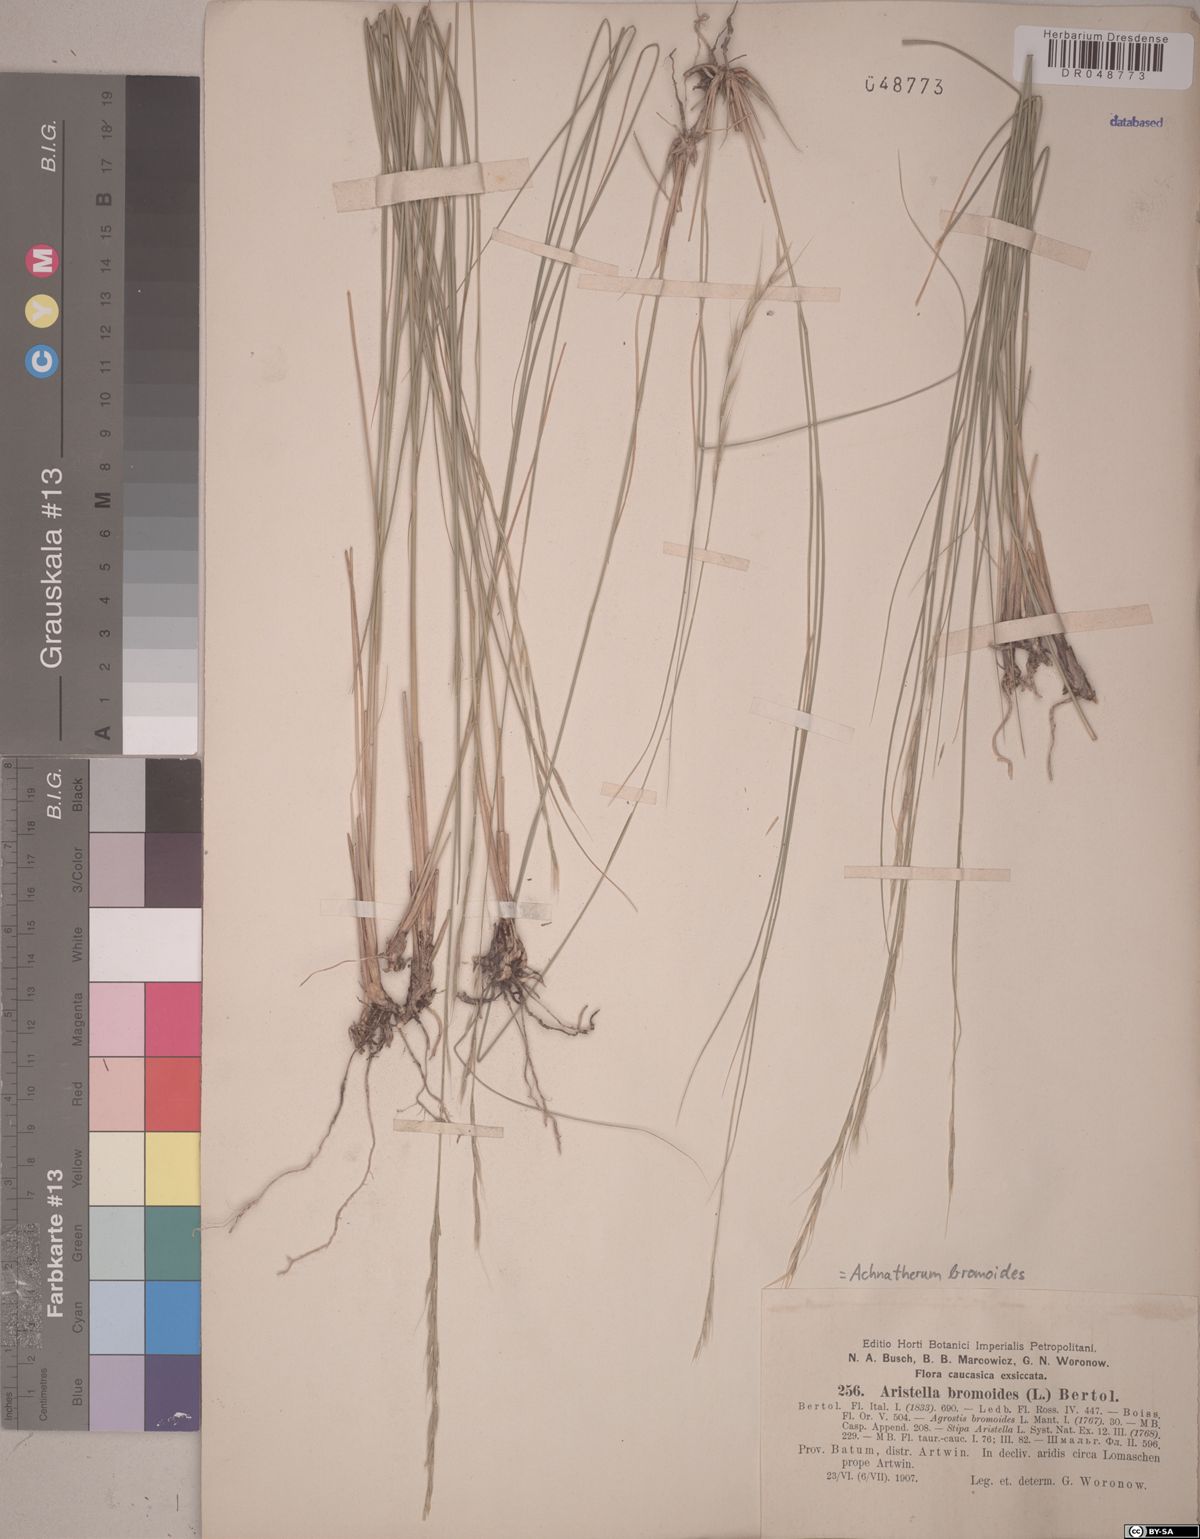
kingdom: Plantae
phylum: Tracheophyta
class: Liliopsida
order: Poales
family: Poaceae
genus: Achnatherum
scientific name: Achnatherum bromoides
